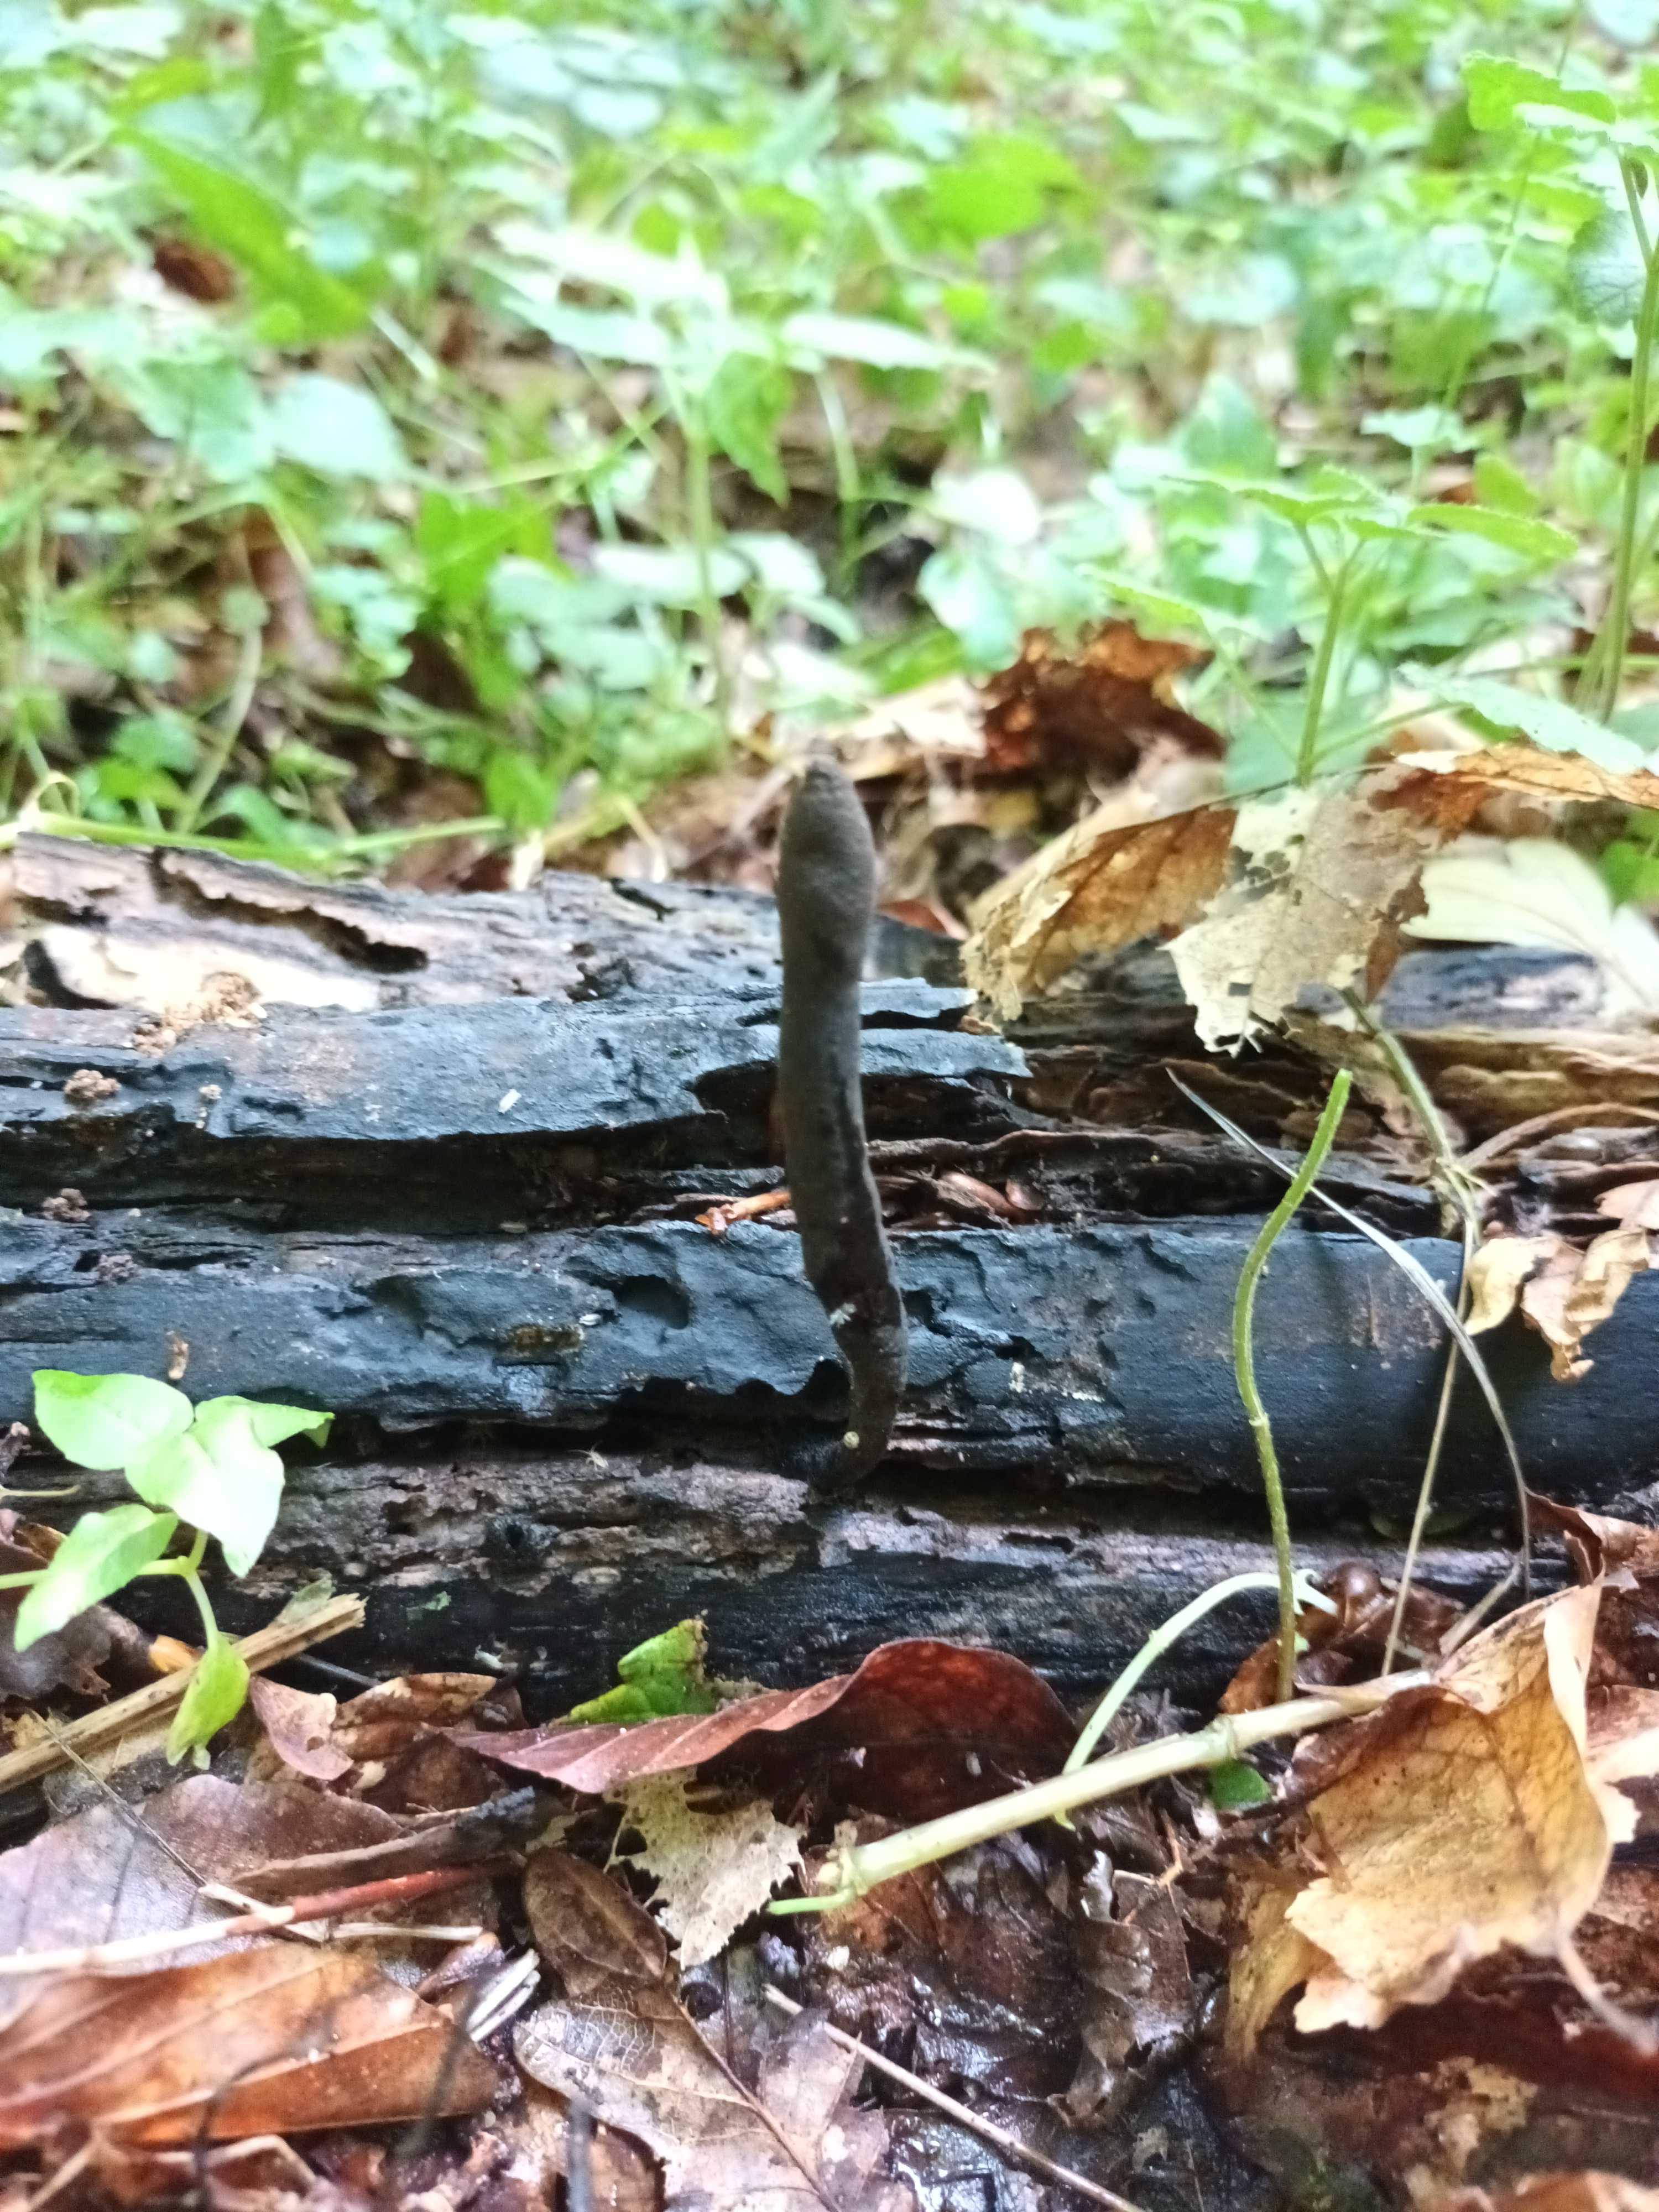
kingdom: Fungi
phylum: Ascomycota
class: Sordariomycetes
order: Xylariales
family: Xylariaceae
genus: Xylaria
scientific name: Xylaria longipes
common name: slank stødsvamp
